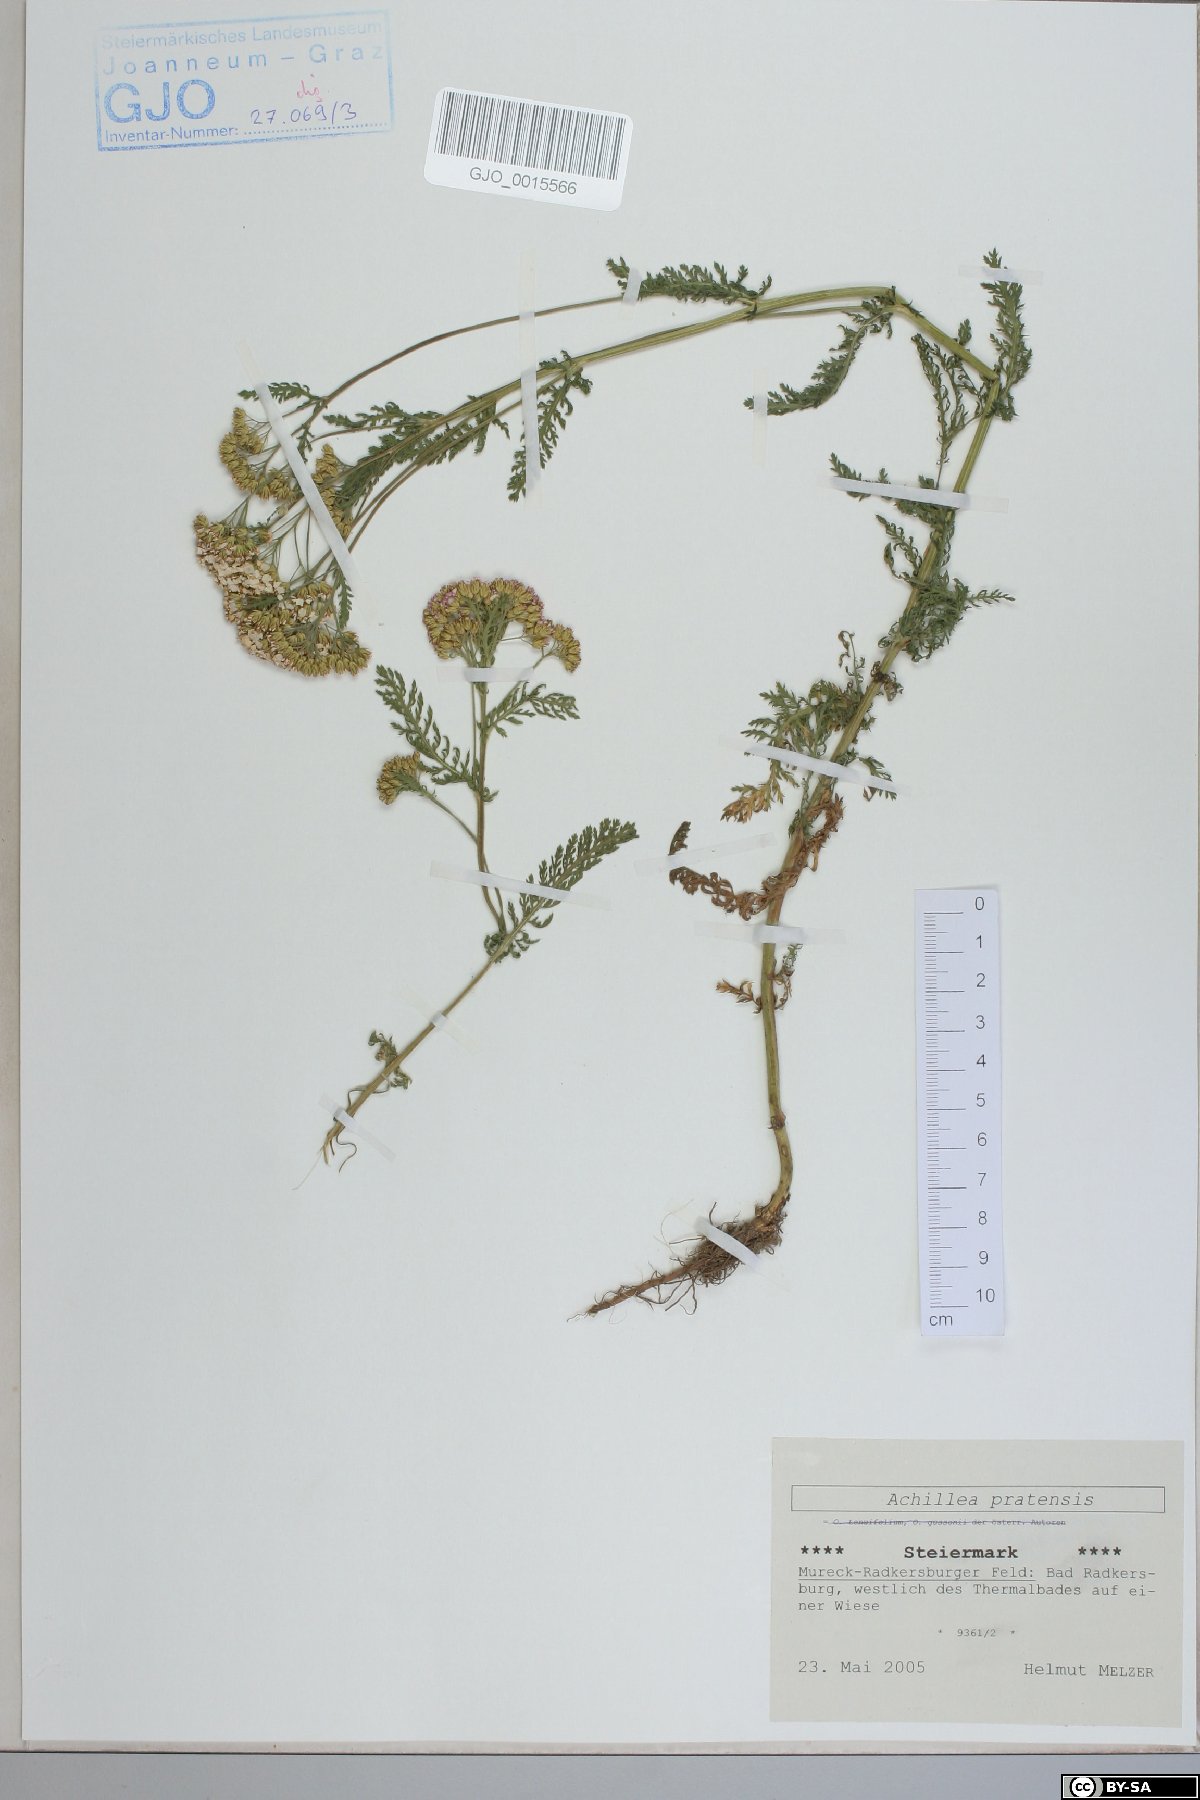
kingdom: Plantae
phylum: Tracheophyta
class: Magnoliopsida
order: Asterales
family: Asteraceae
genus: Achillea
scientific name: Achillea pratensis
